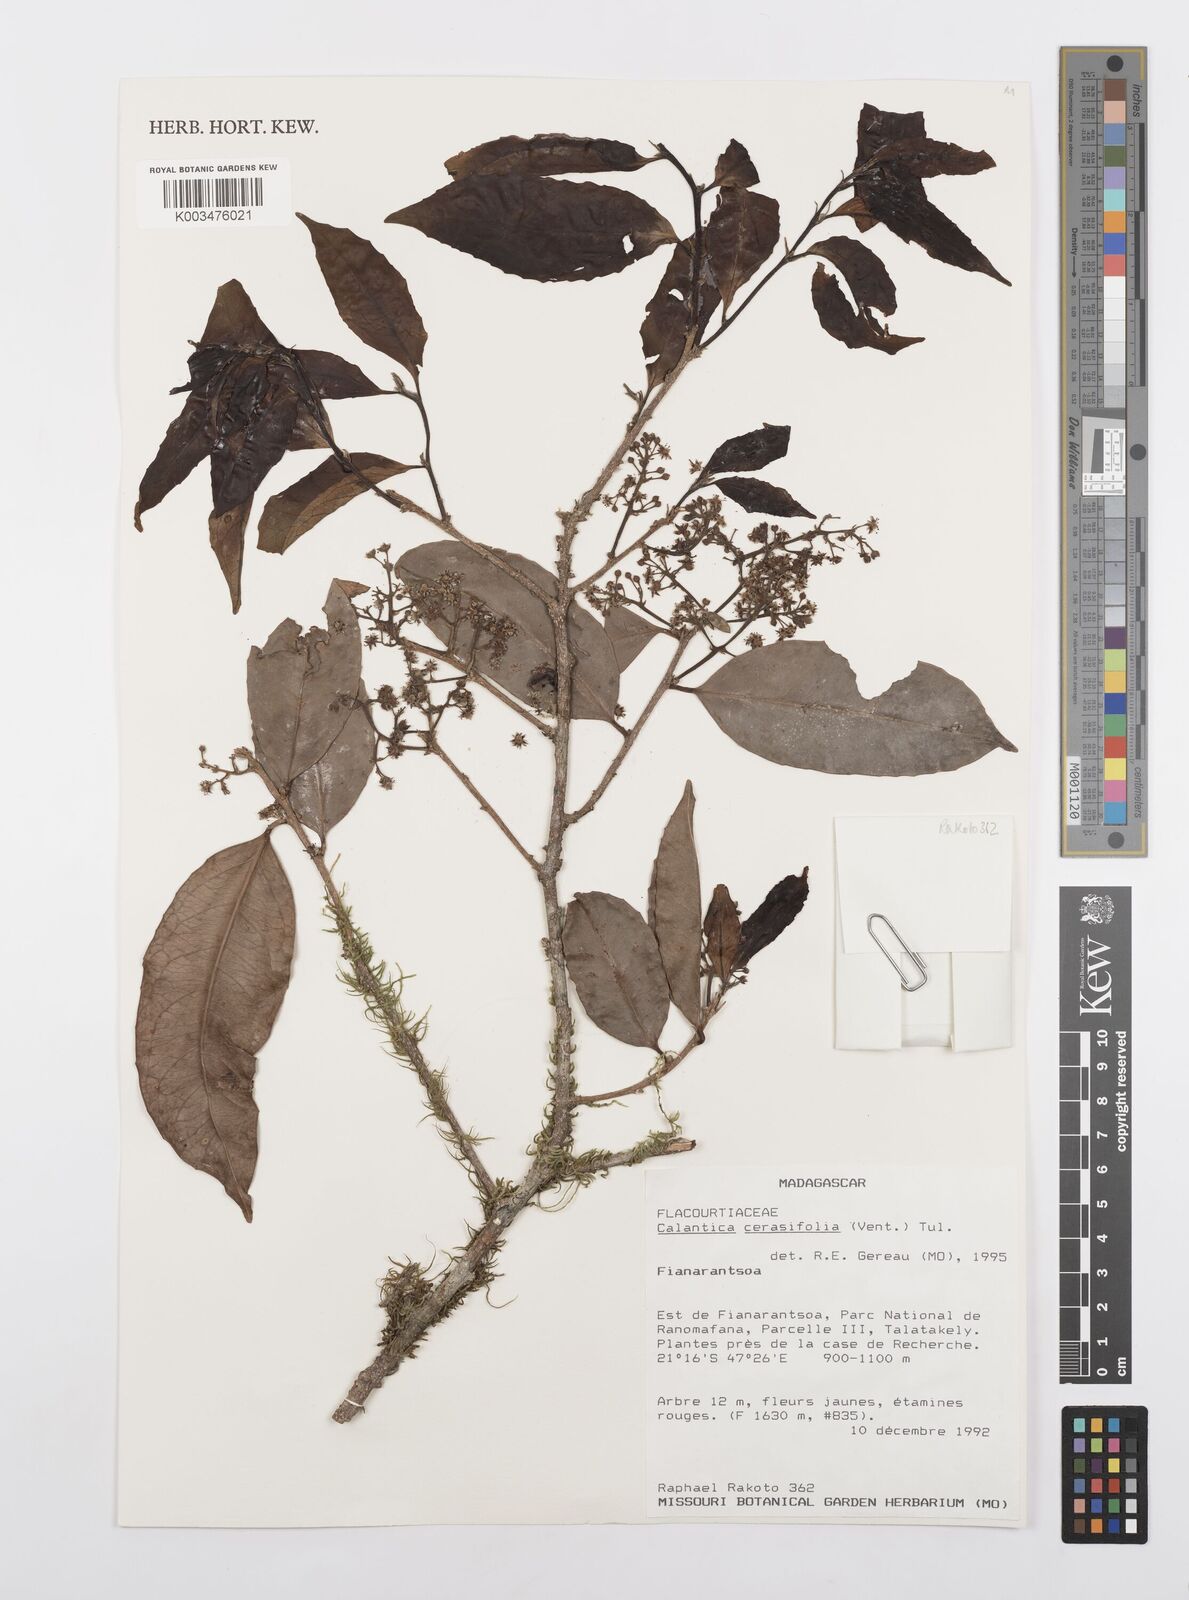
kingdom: Plantae
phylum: Tracheophyta
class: Magnoliopsida
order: Malpighiales
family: Salicaceae
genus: Calantica
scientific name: Calantica cerasifolia
